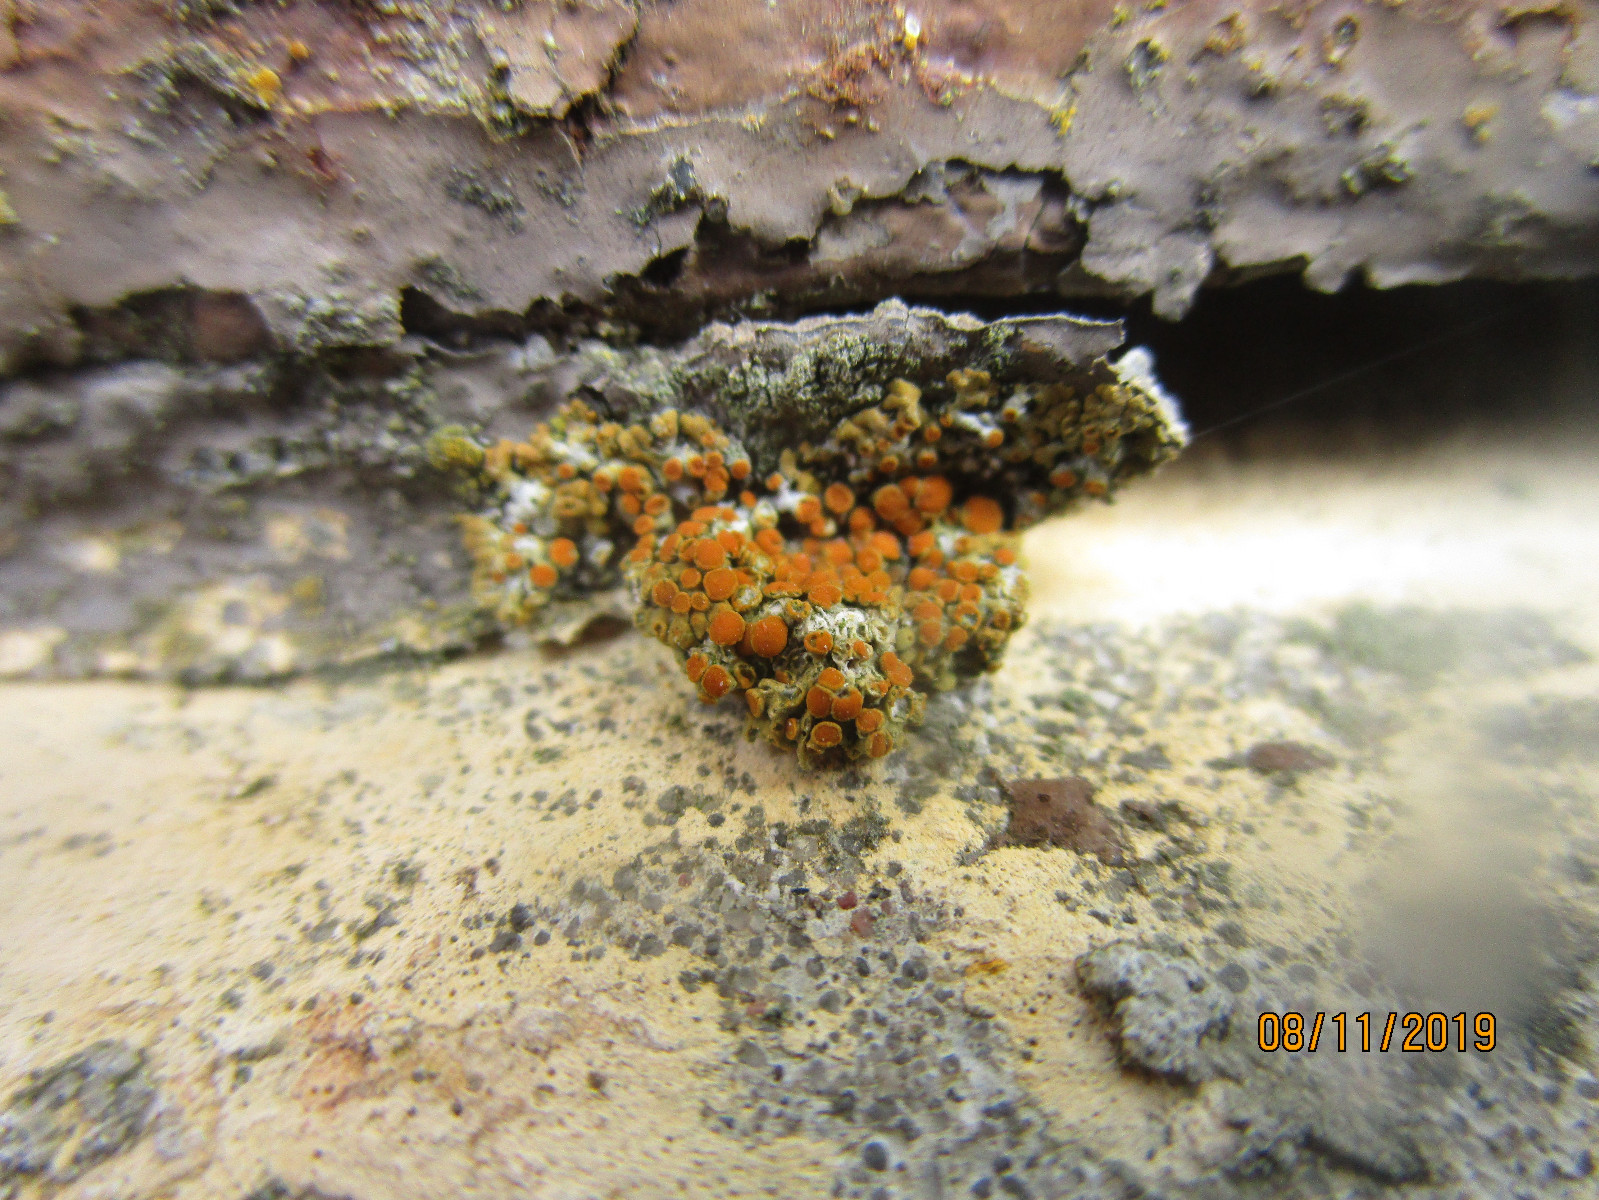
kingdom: Fungi
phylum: Ascomycota
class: Lecanoromycetes
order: Teloschistales
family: Teloschistaceae
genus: Calogaya
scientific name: Calogaya pusilla
